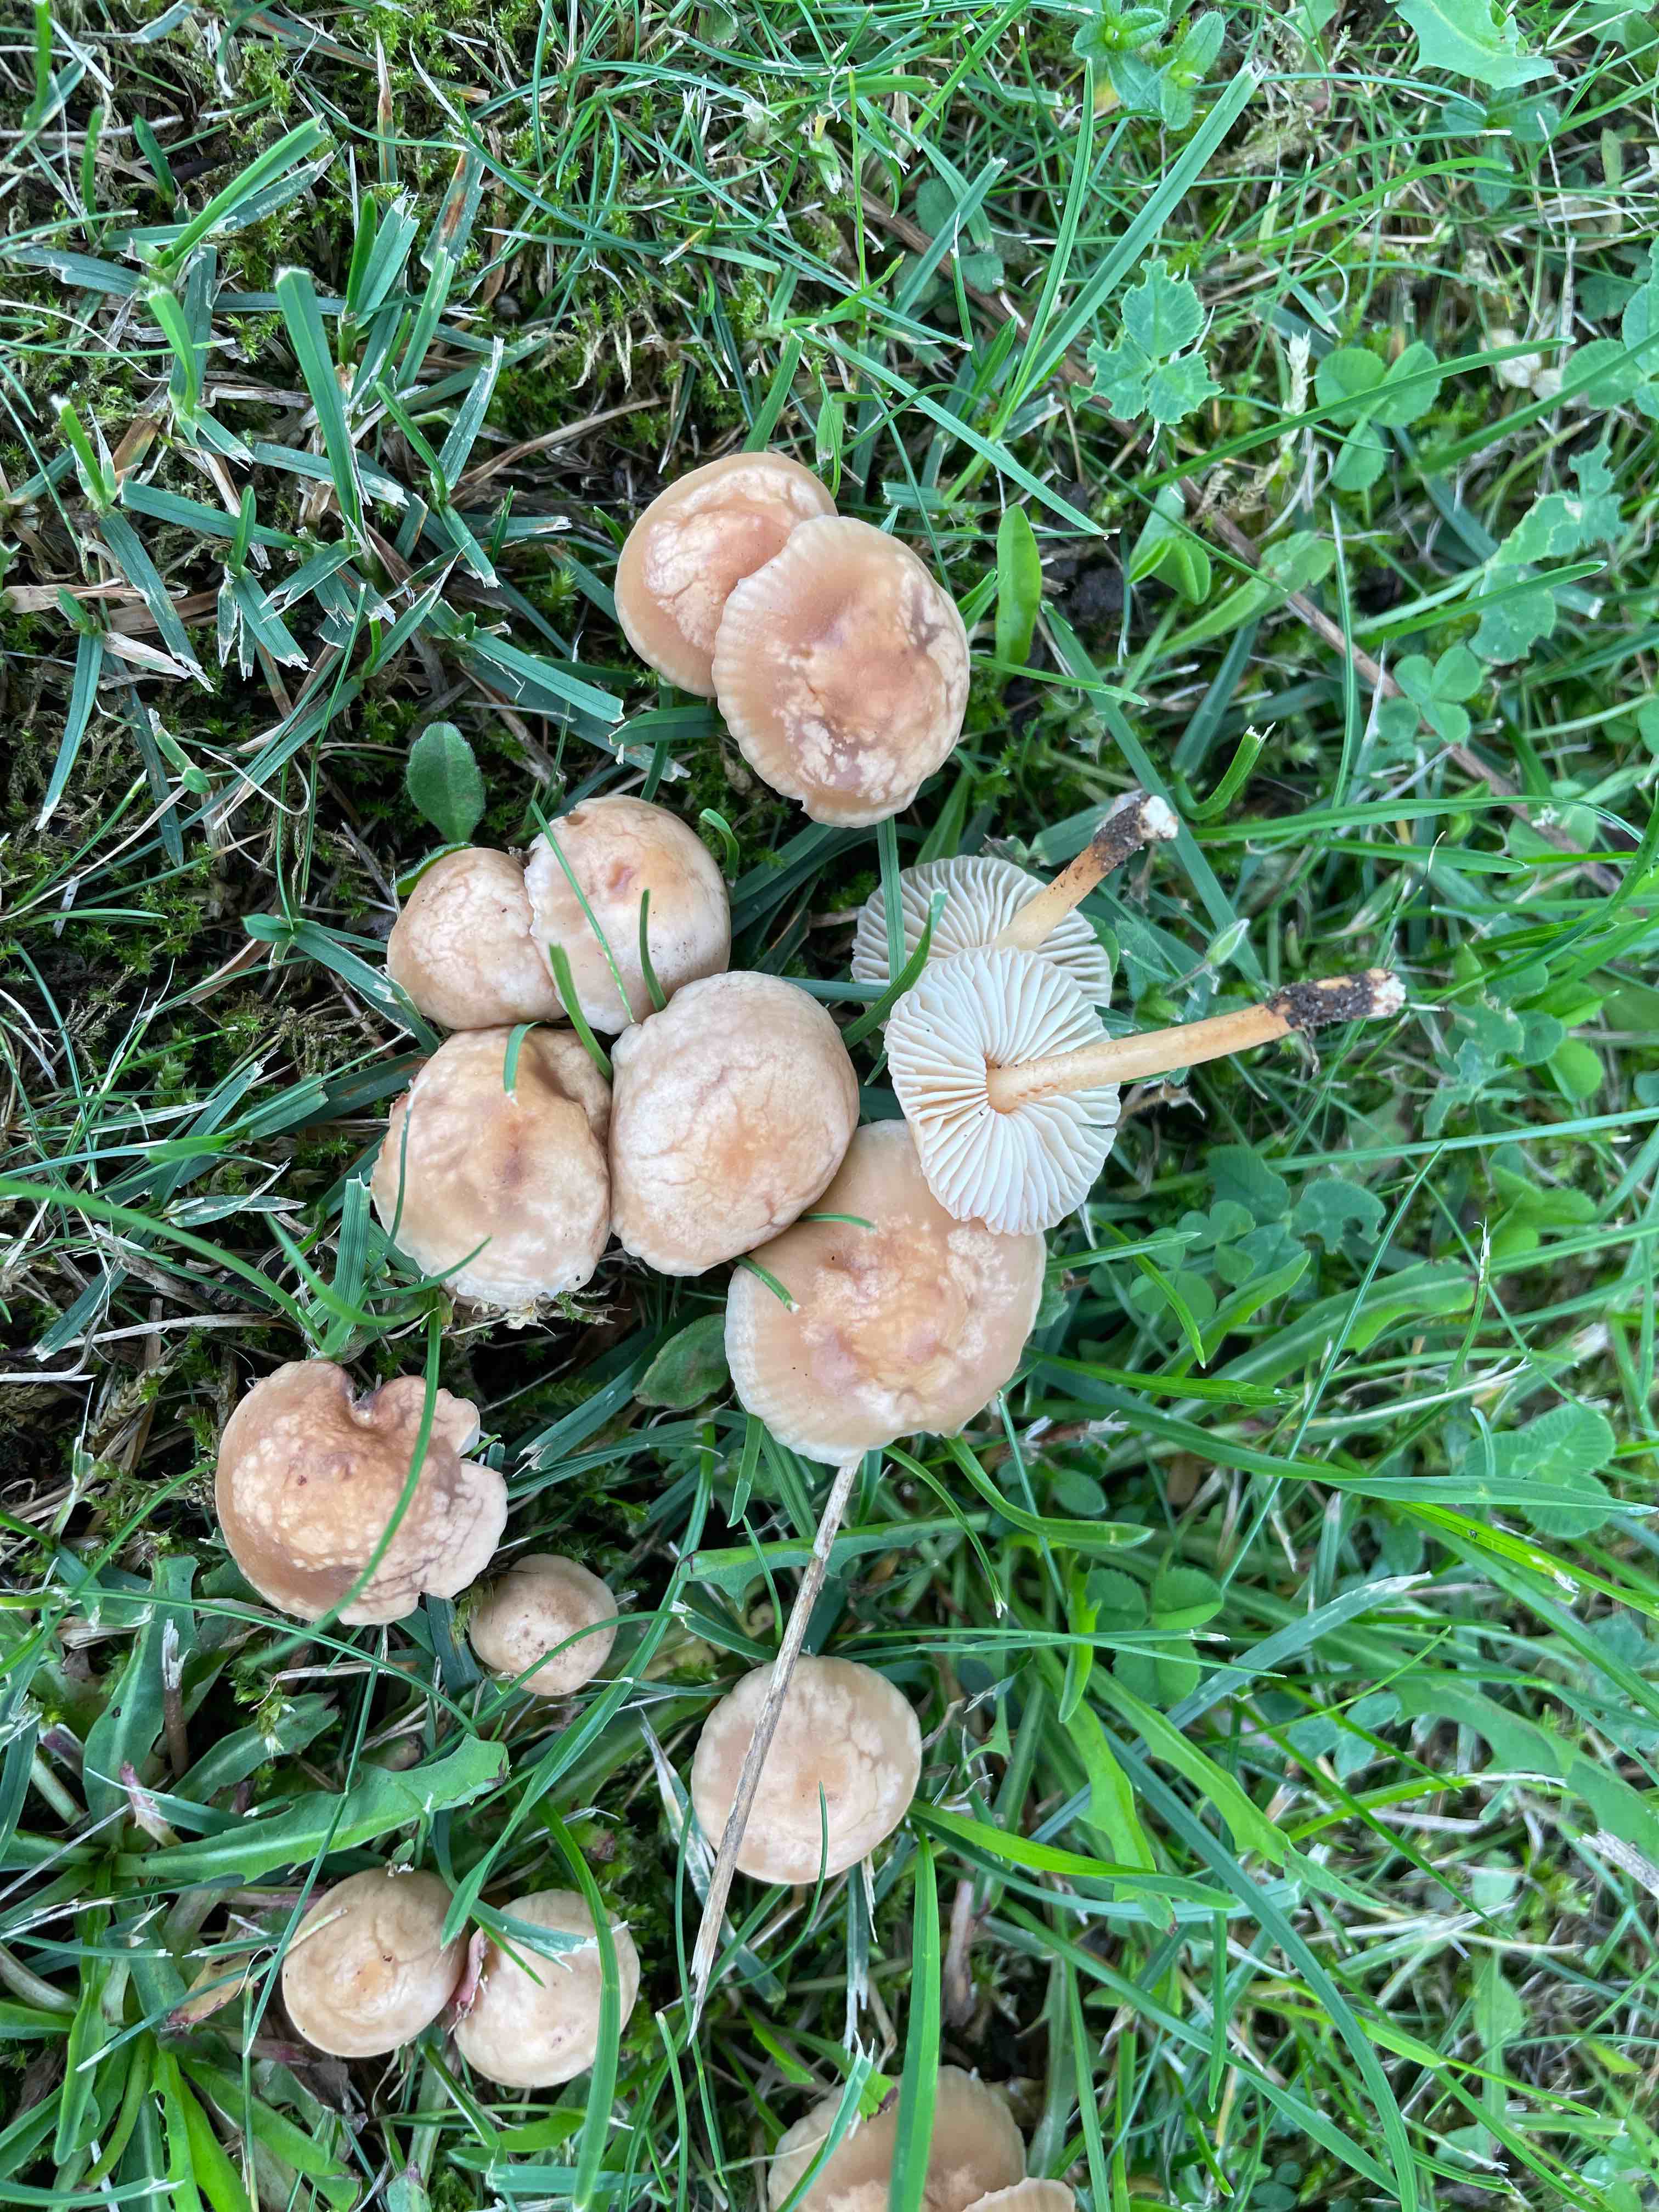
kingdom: Fungi
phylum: Basidiomycota
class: Agaricomycetes
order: Agaricales
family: Marasmiaceae
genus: Marasmius
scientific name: Marasmius oreades
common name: elledans-bruskhat
